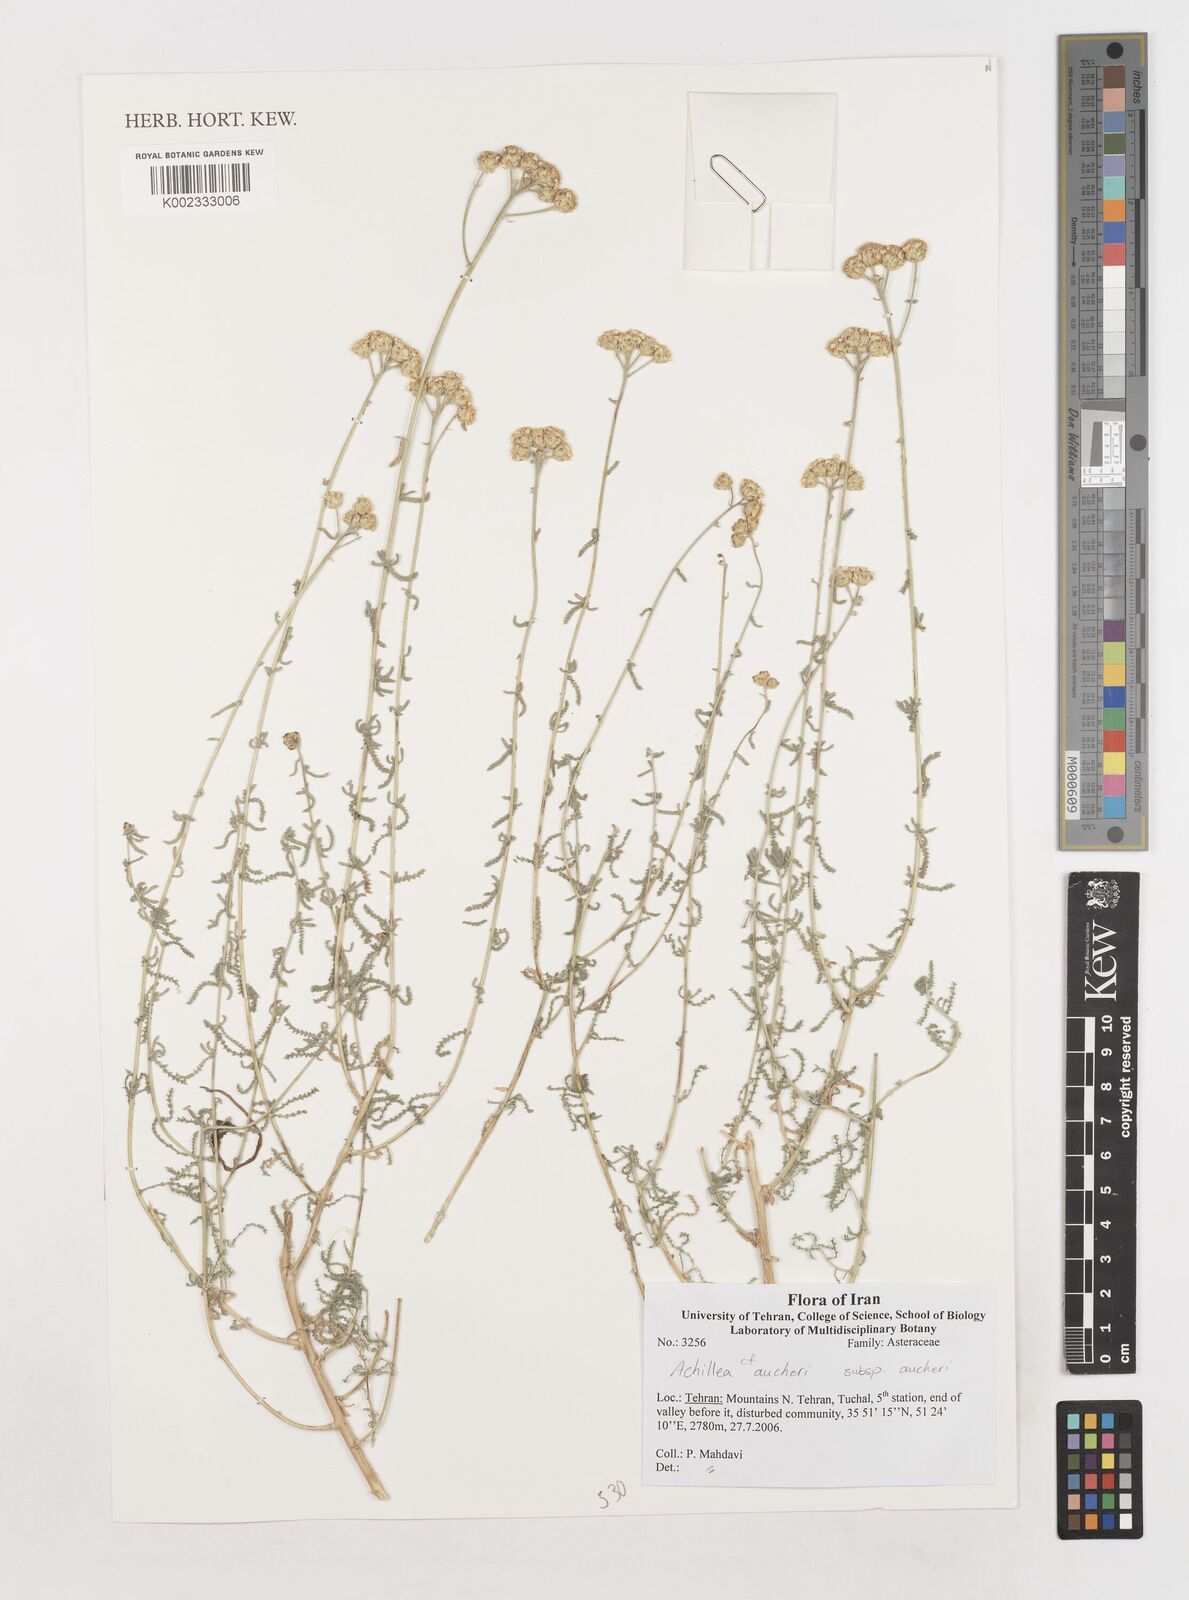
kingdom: Plantae
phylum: Tracheophyta
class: Magnoliopsida
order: Asterales
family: Asteraceae
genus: Achillea
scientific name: Achillea aucheri
